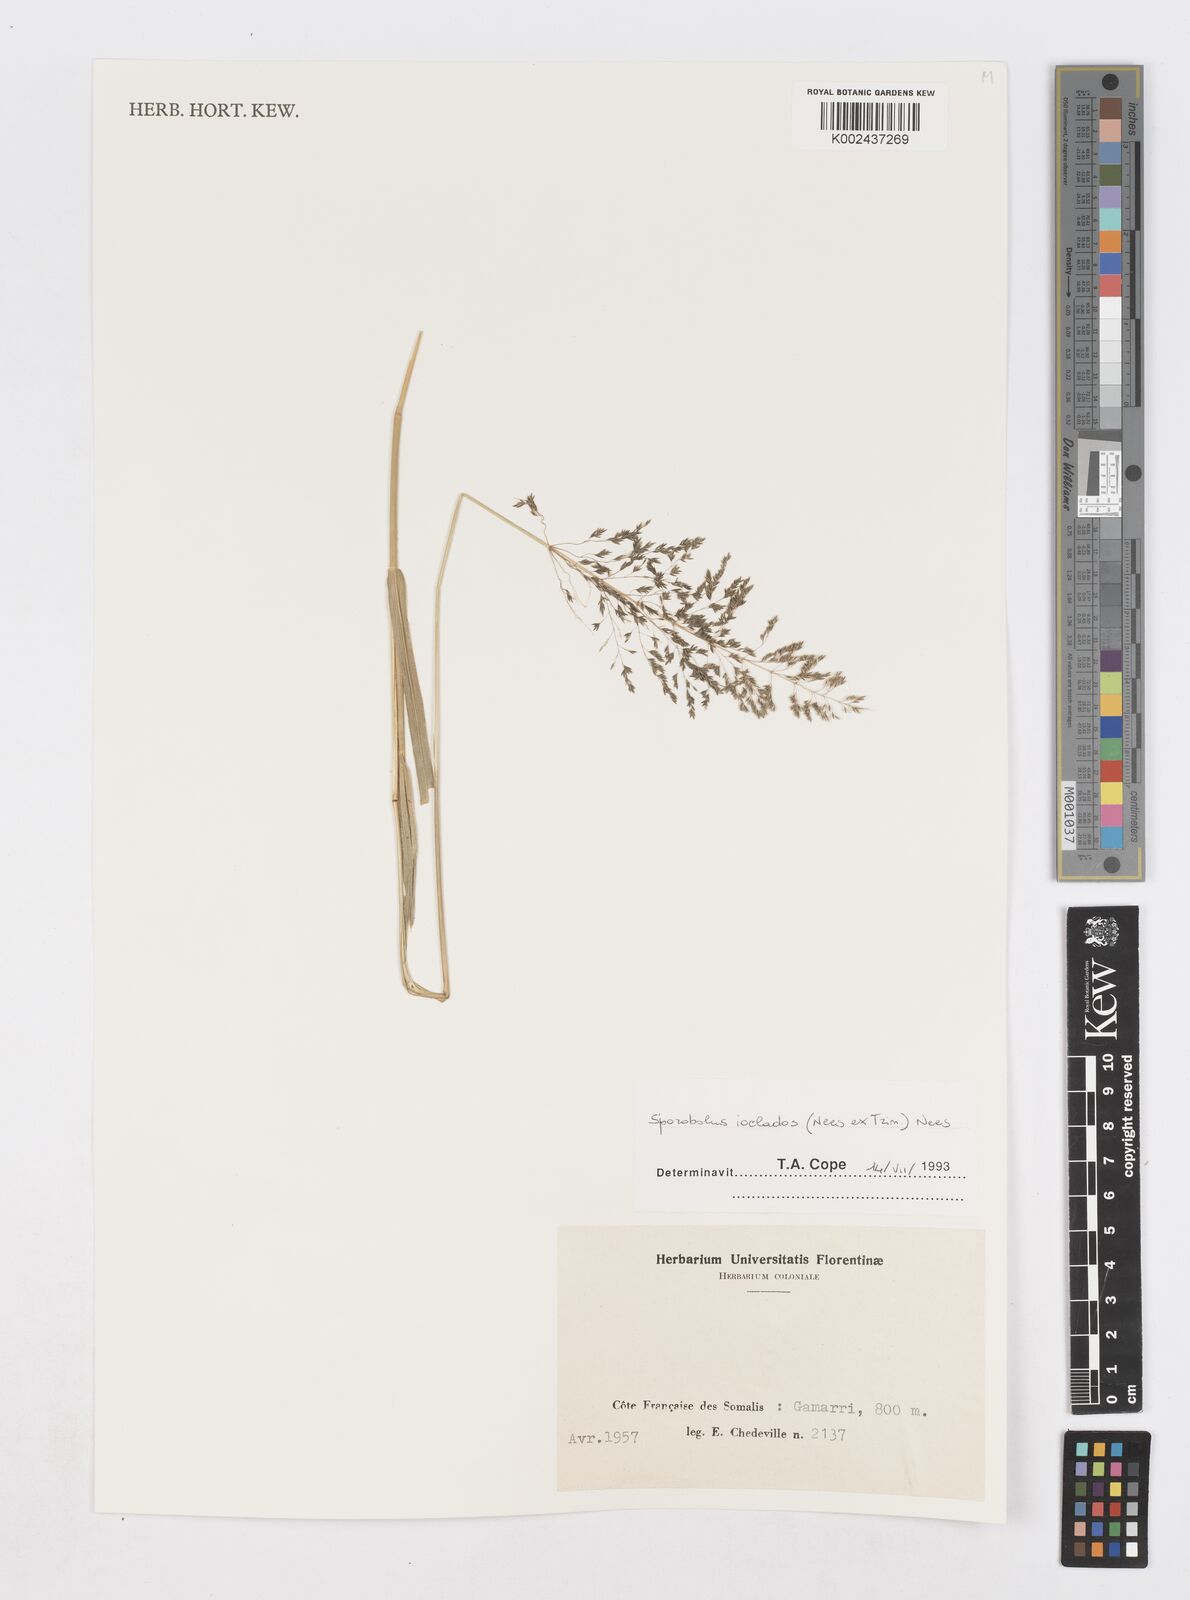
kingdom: Plantae
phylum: Tracheophyta
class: Liliopsida
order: Poales
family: Poaceae
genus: Sporobolus
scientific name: Sporobolus ioclados
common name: Pan dropseed
